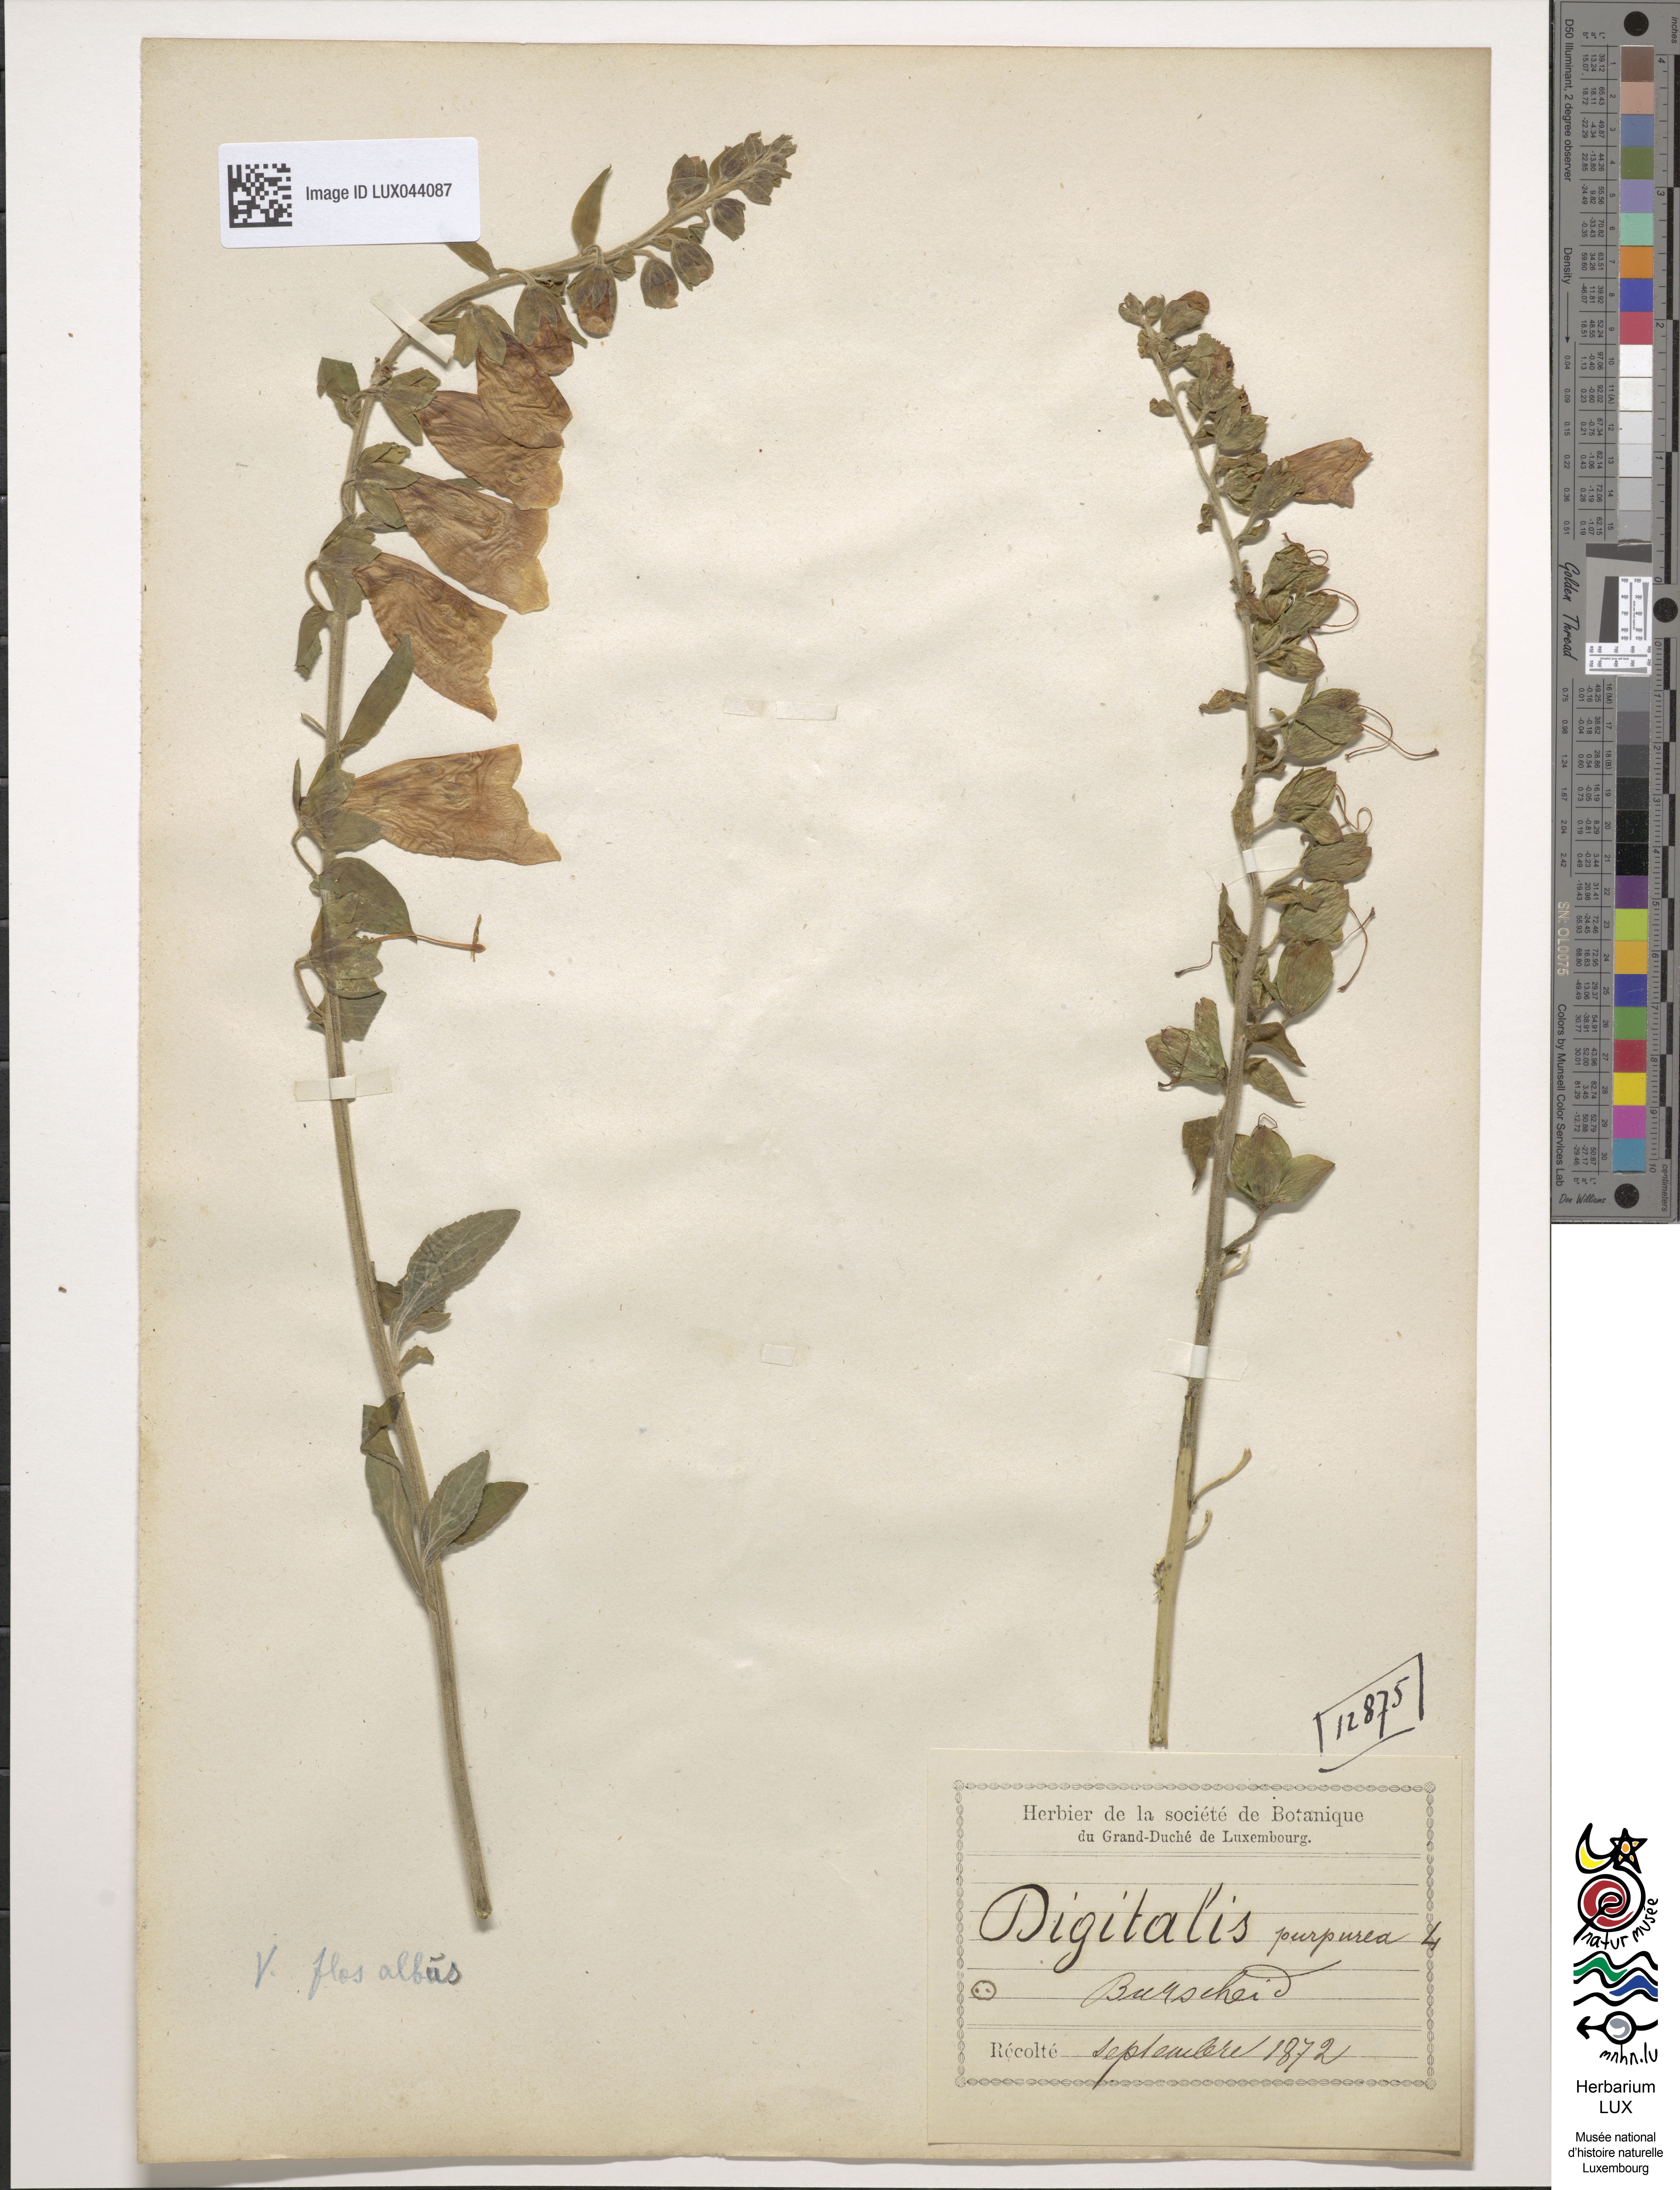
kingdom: Plantae
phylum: Tracheophyta
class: Magnoliopsida
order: Lamiales
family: Plantaginaceae
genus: Digitalis
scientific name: Digitalis purpurea
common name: Foxglove
